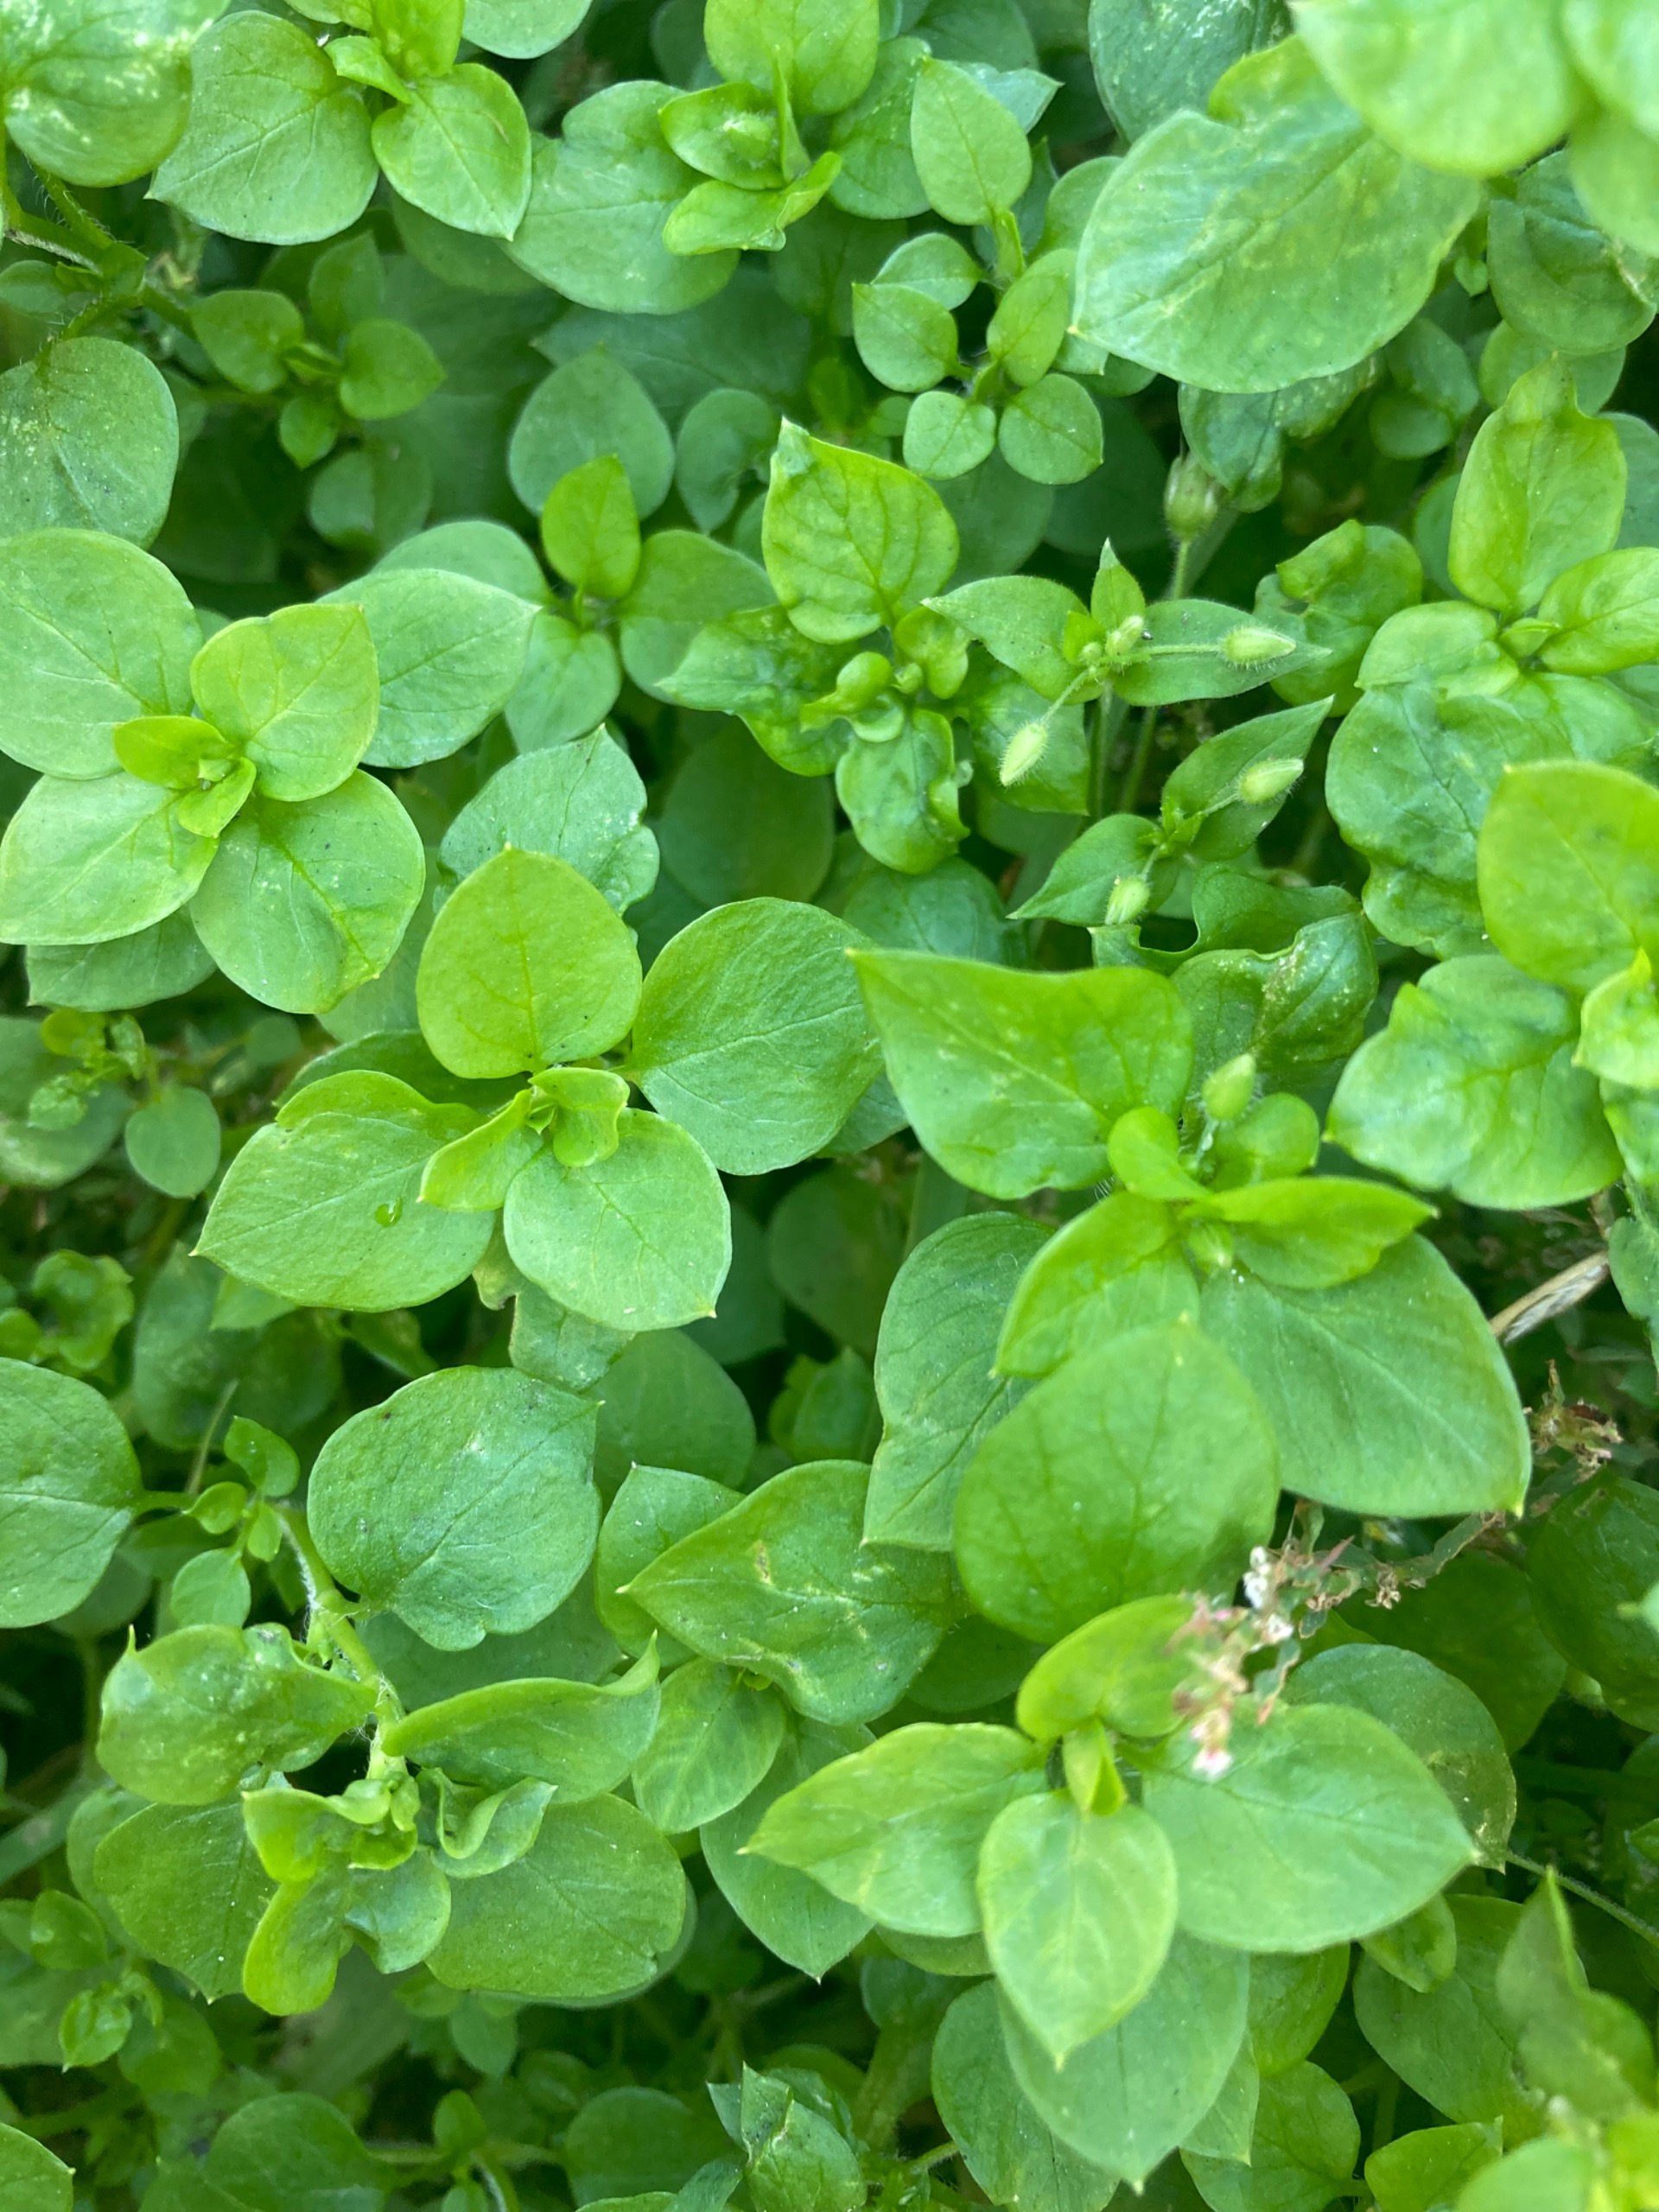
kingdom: Plantae
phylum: Tracheophyta
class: Magnoliopsida
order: Caryophyllales
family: Caryophyllaceae
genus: Stellaria
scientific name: Stellaria media
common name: Almindelig fuglegræs
